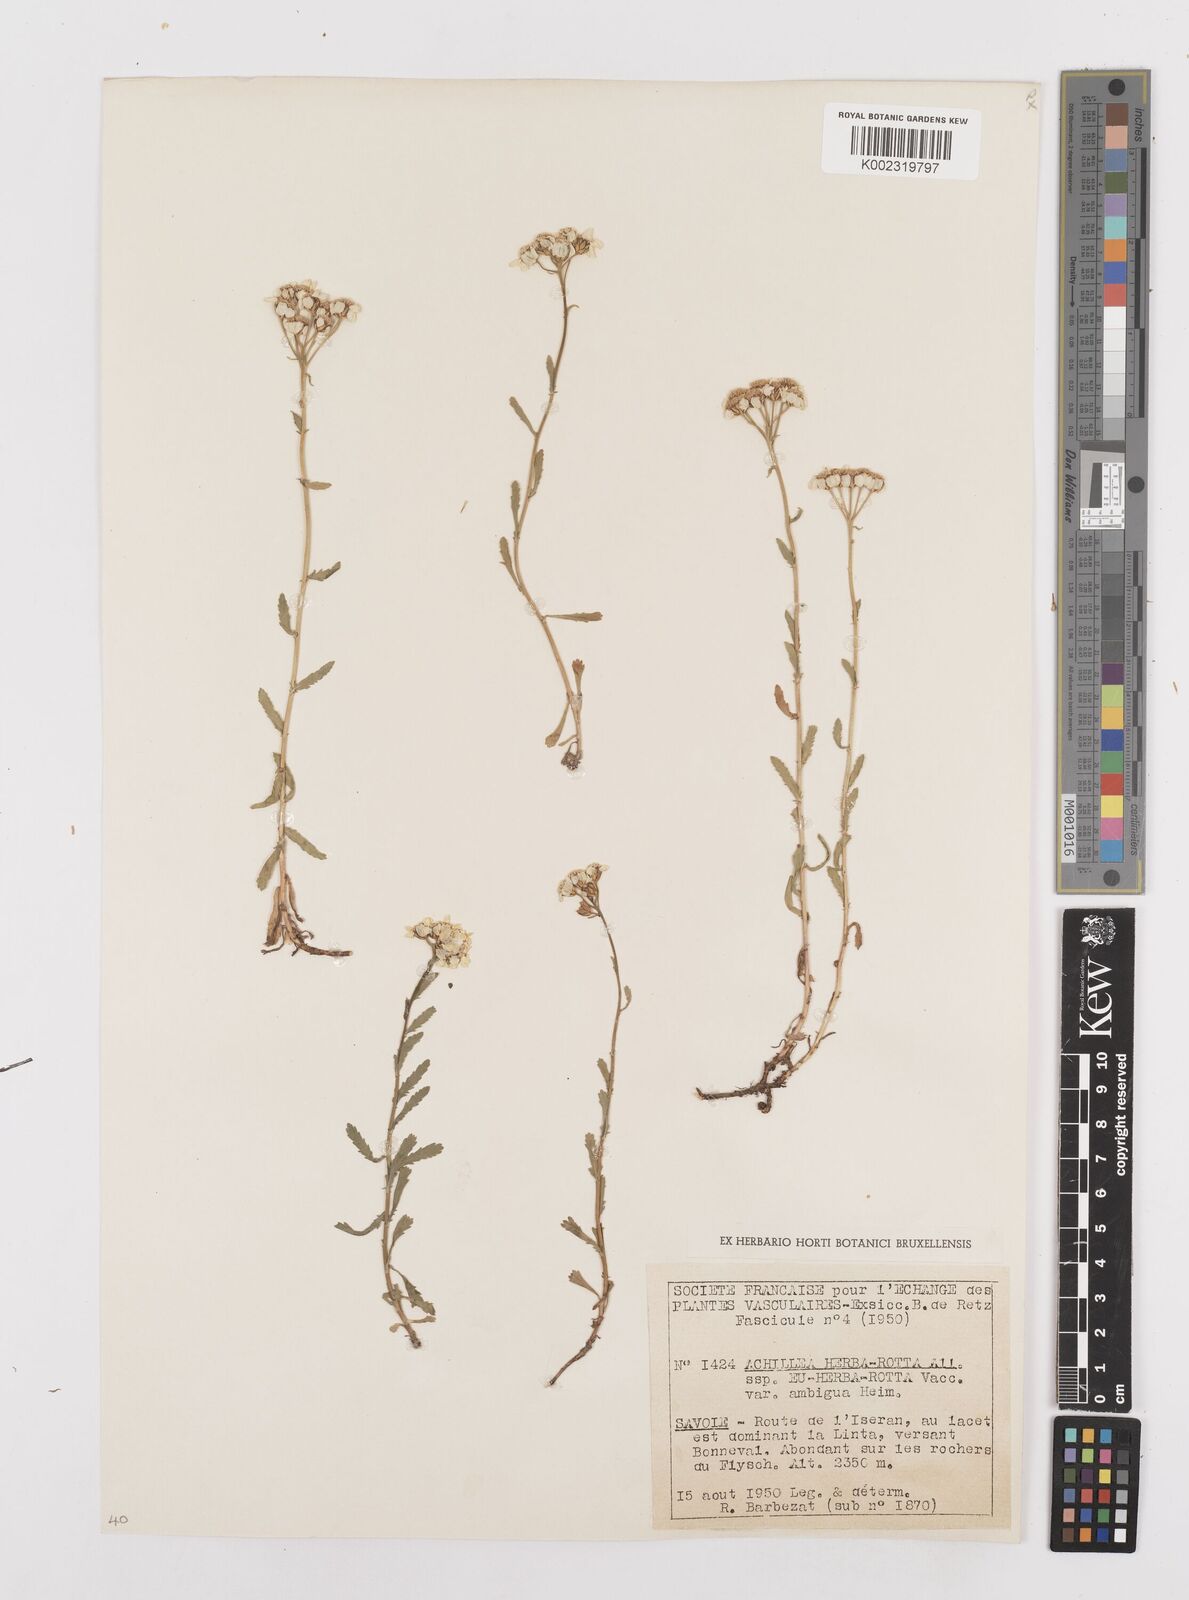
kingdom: Plantae
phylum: Tracheophyta
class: Magnoliopsida
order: Asterales
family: Asteraceae
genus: Achillea
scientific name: Achillea erba-rotta
